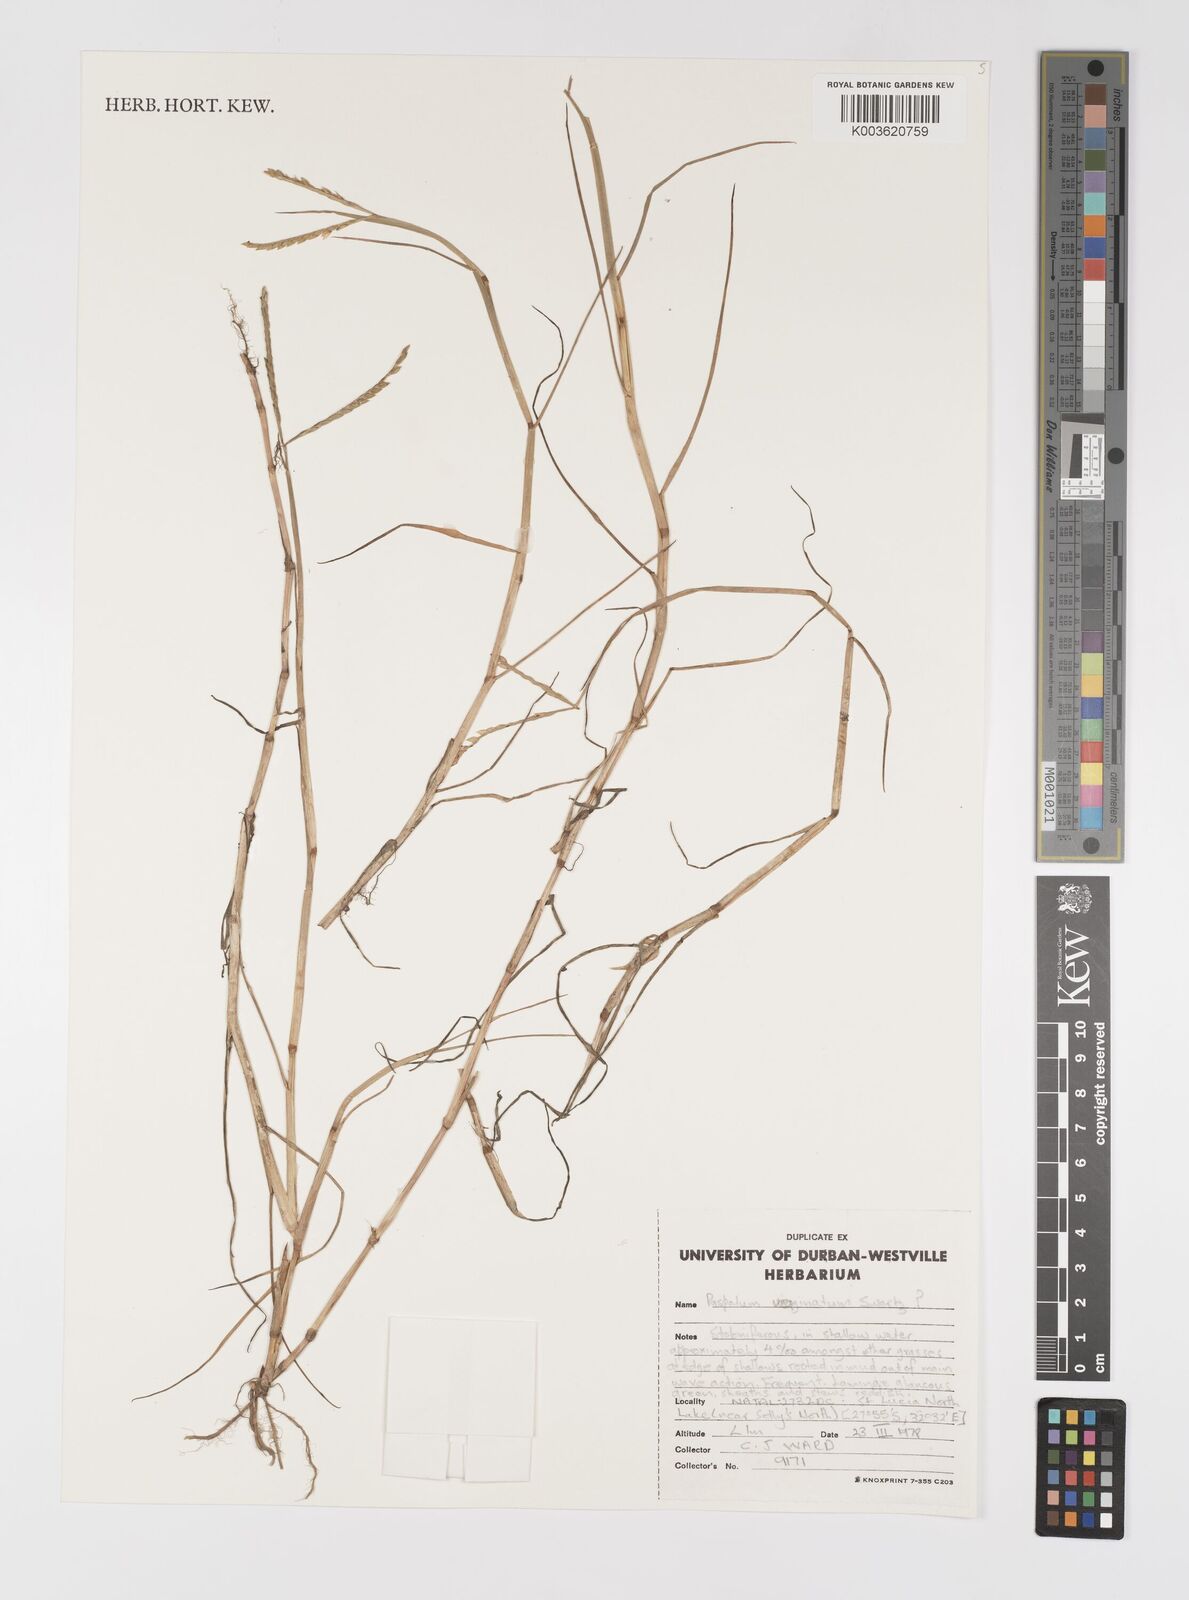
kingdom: Plantae
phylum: Tracheophyta
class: Liliopsida
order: Poales
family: Poaceae
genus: Paspalum
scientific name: Paspalum vaginatum
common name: Seashore paspalum
